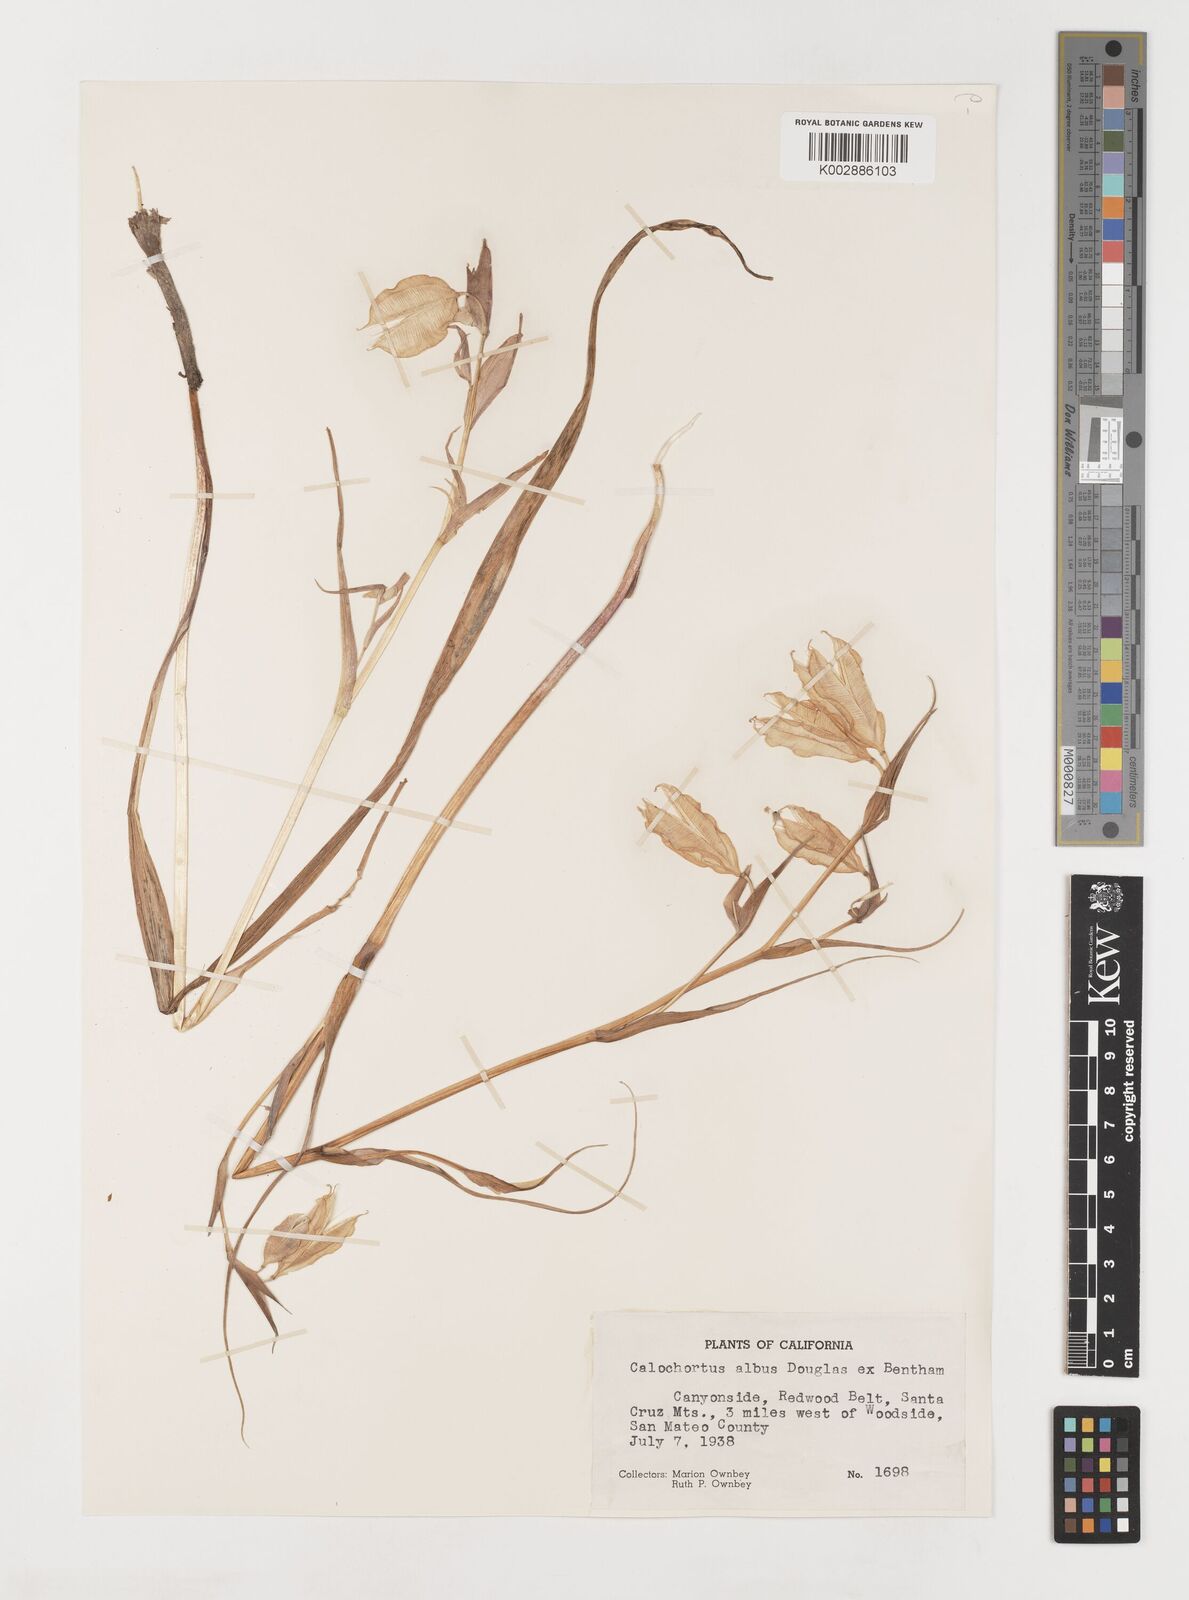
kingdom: Plantae
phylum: Tracheophyta
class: Liliopsida
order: Liliales
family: Liliaceae
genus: Calochortus
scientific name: Calochortus albus
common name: Fairy-lantern
